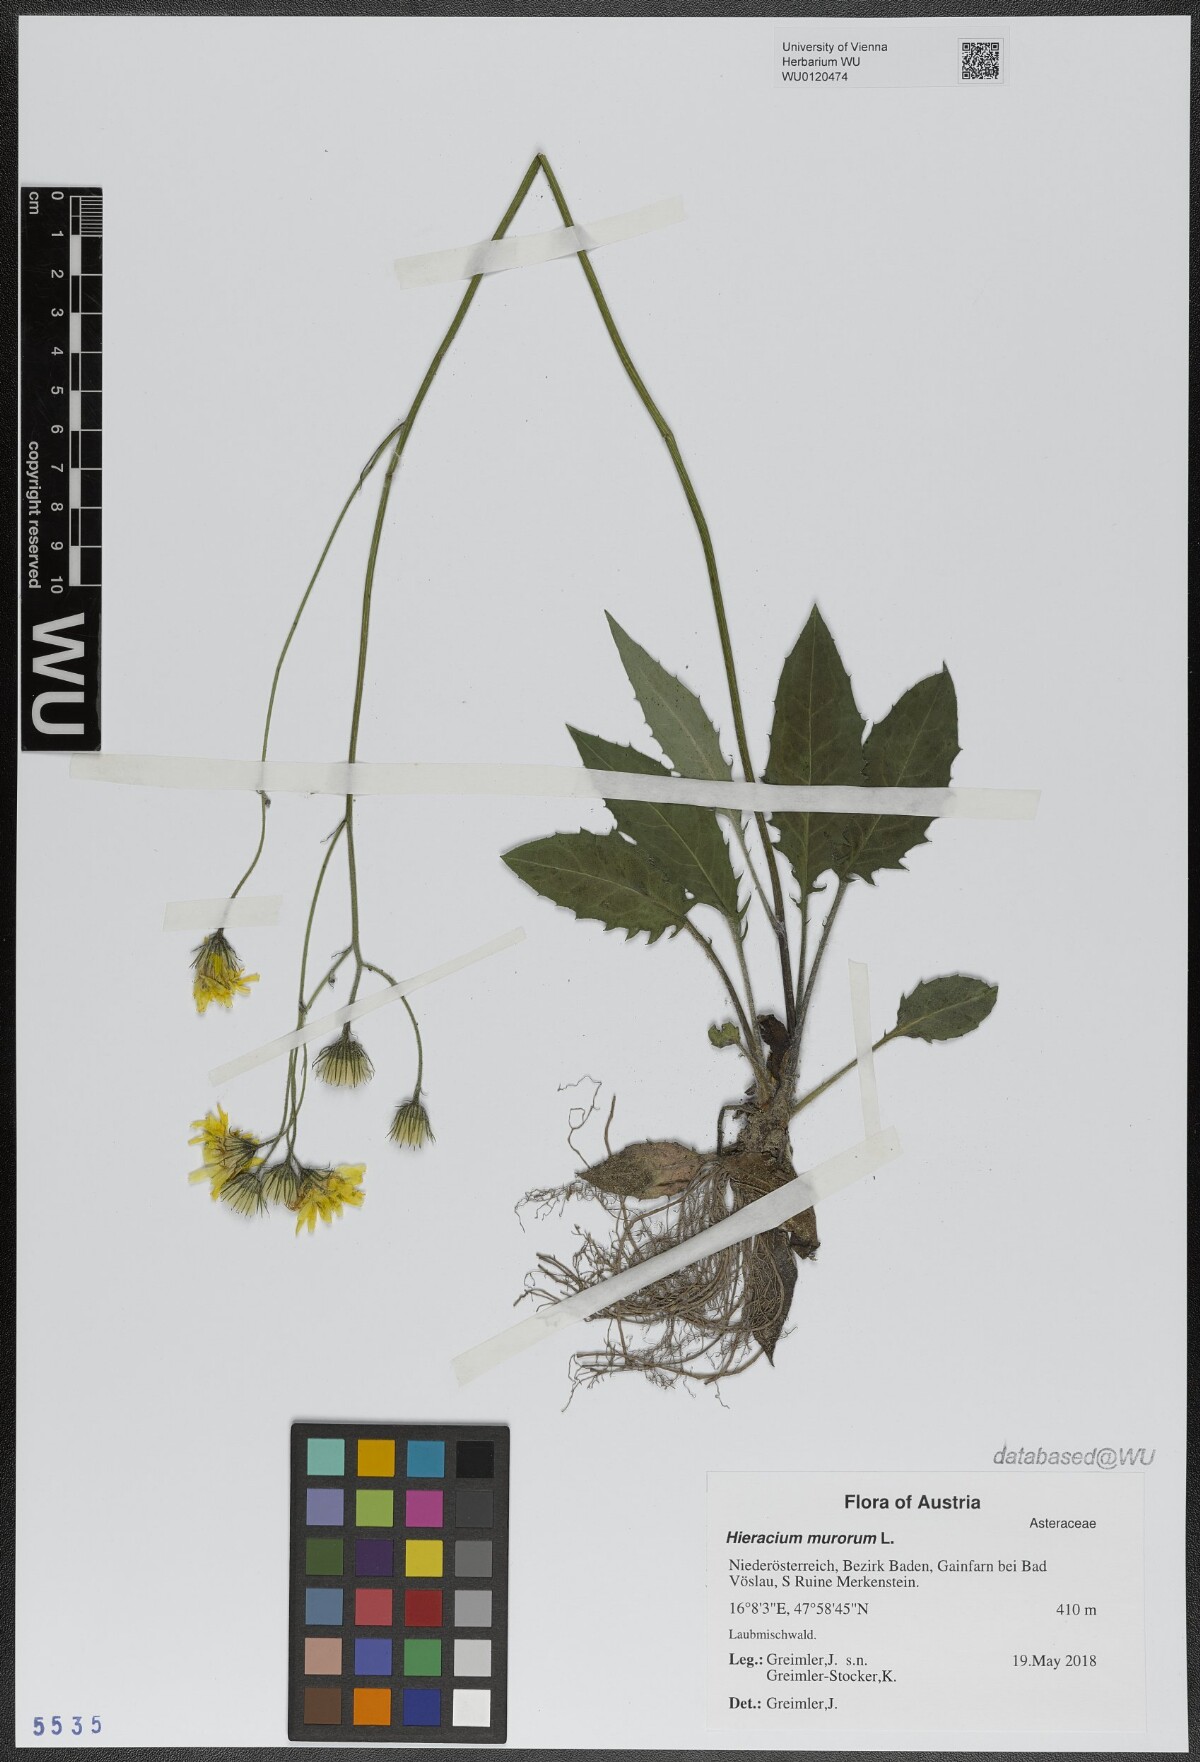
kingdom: Plantae
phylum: Tracheophyta
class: Magnoliopsida
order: Asterales
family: Asteraceae
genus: Hieracium
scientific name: Hieracium murorum
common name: Wall hawkweed
